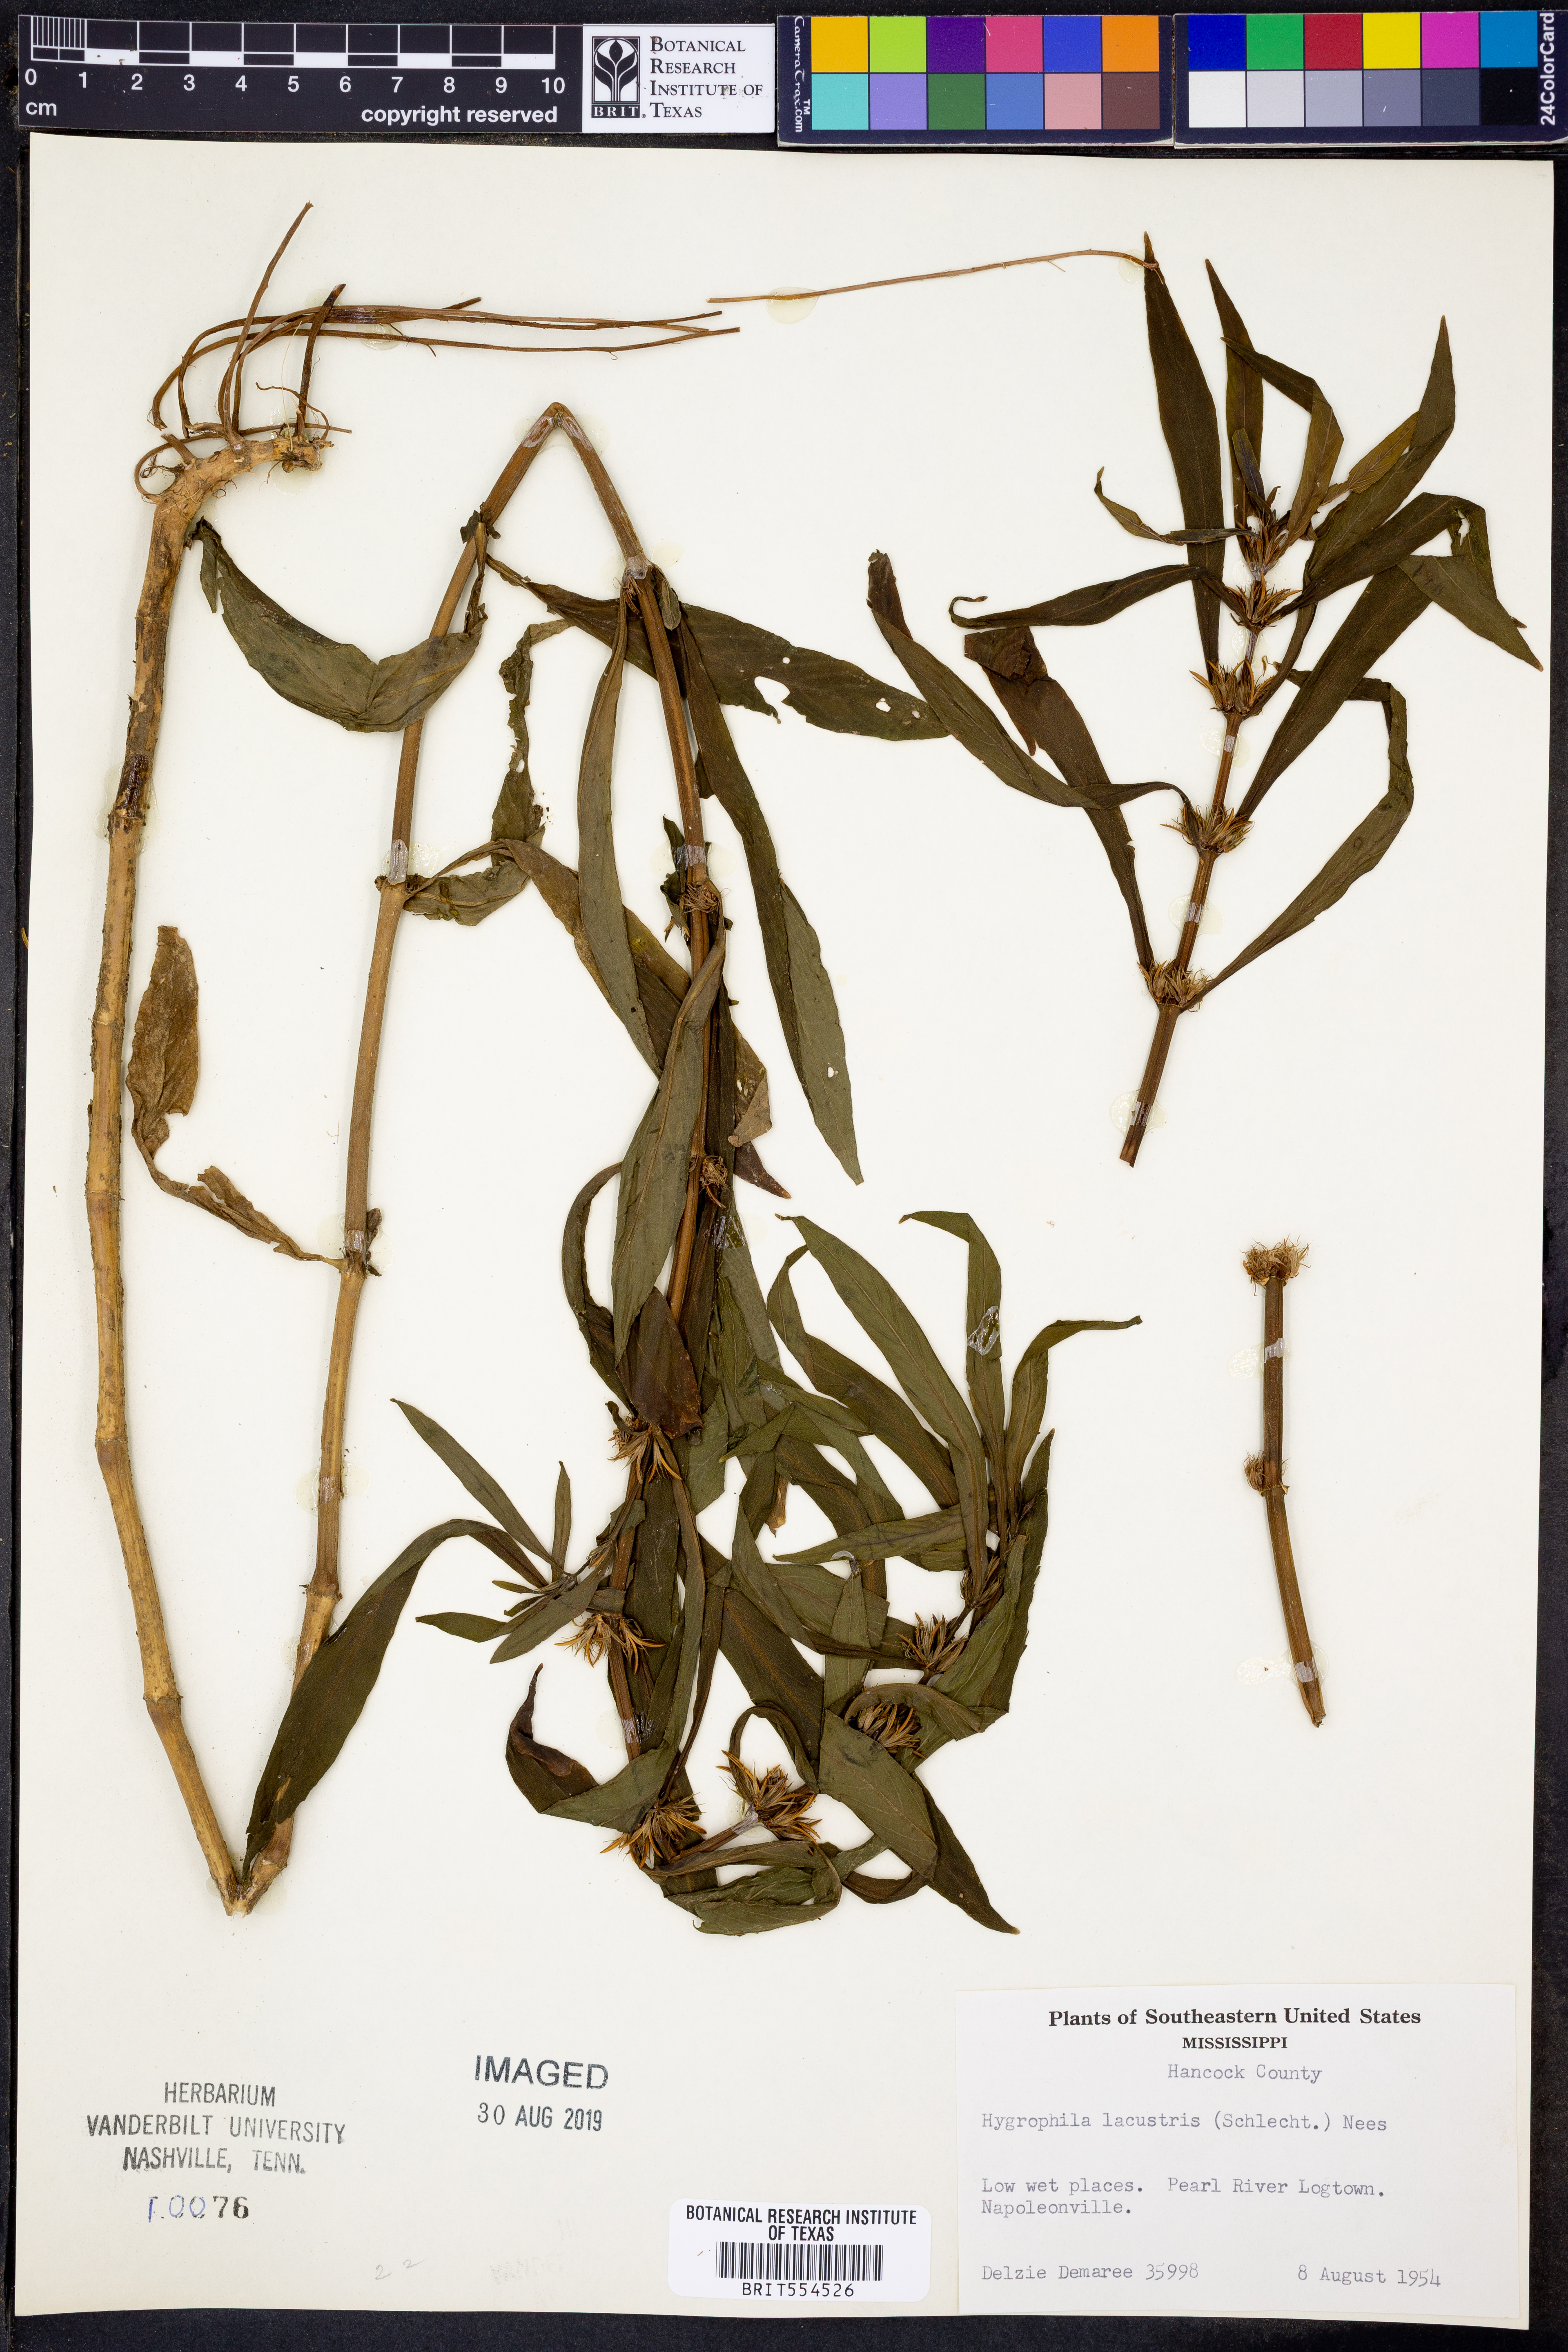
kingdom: Plantae
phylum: Tracheophyta
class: Magnoliopsida
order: Lamiales
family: Acanthaceae
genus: Hygrophila
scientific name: Hygrophila costata
